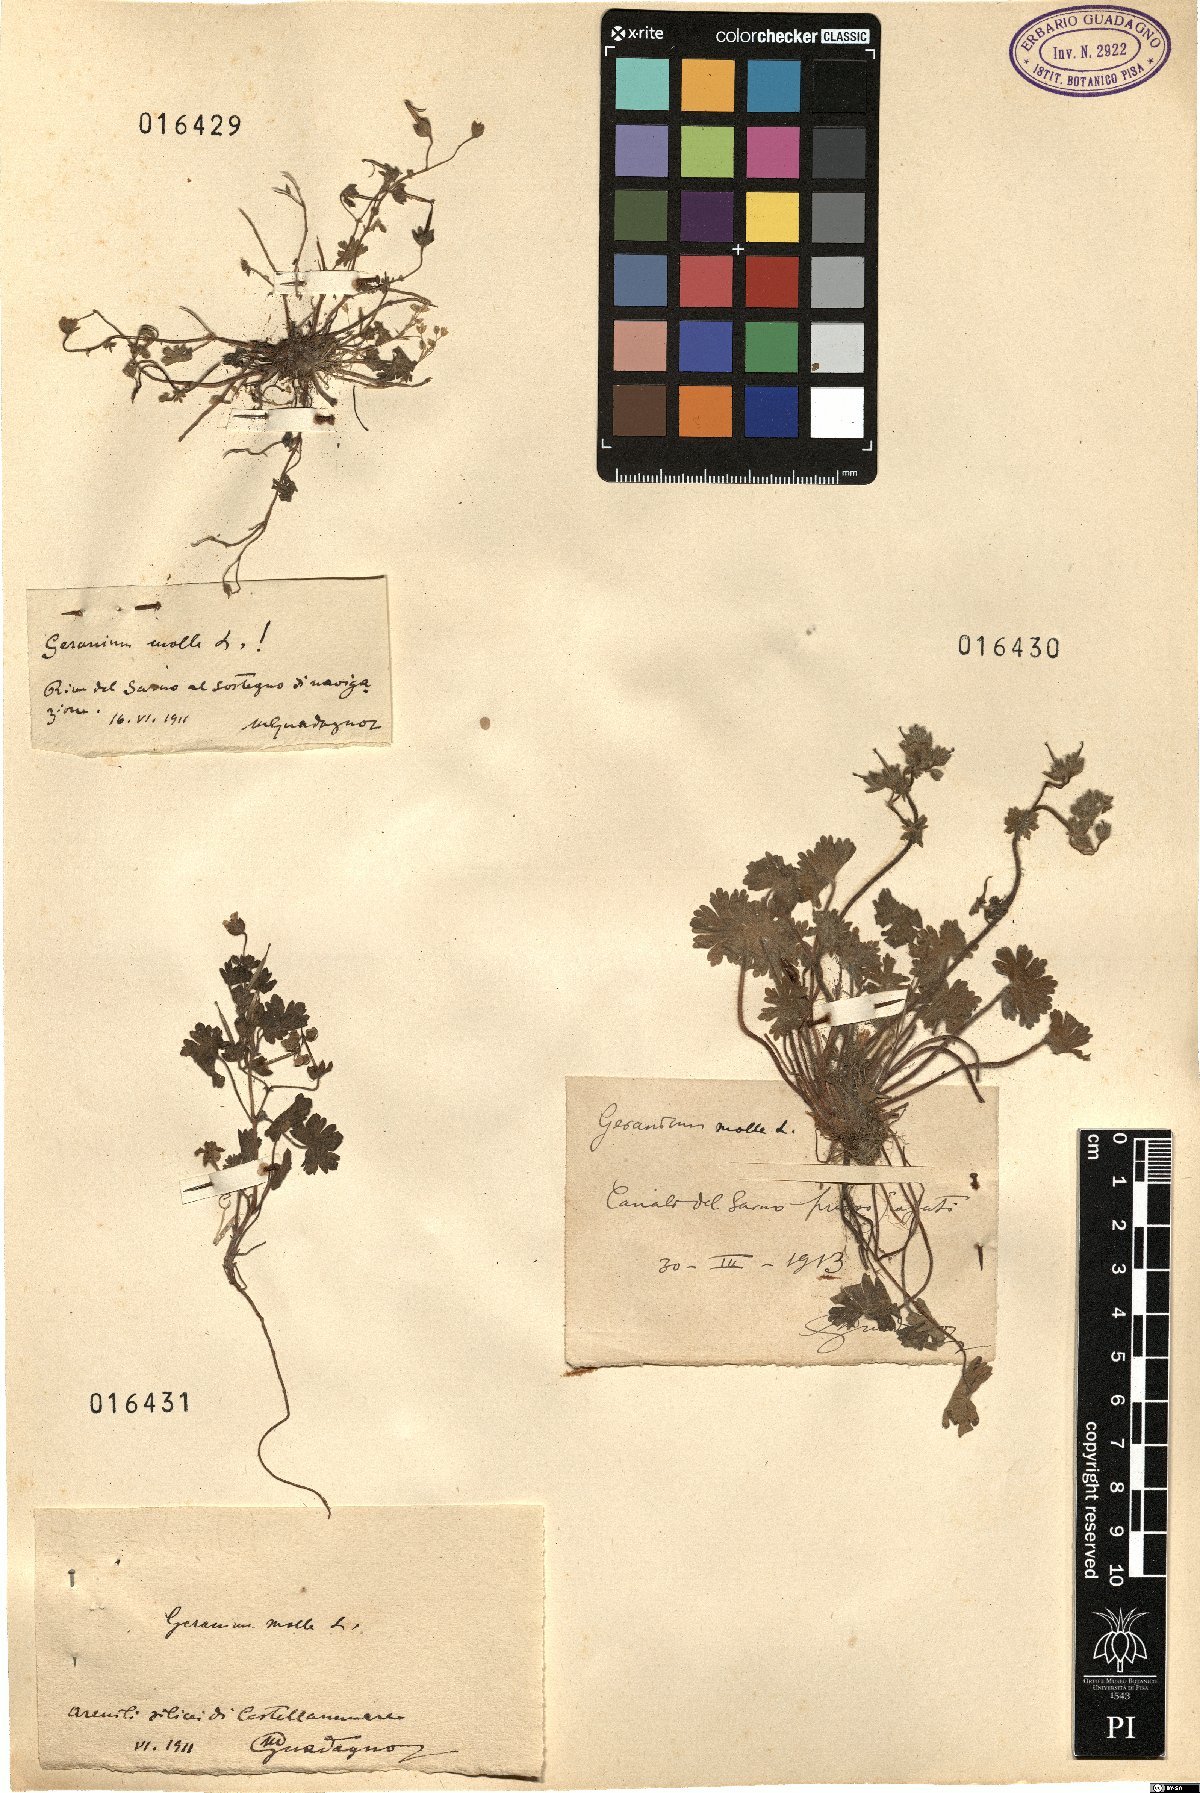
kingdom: Plantae
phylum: Tracheophyta
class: Magnoliopsida
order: Geraniales
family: Geraniaceae
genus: Geranium
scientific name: Geranium molle
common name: Dove's-foot crane's-bill
